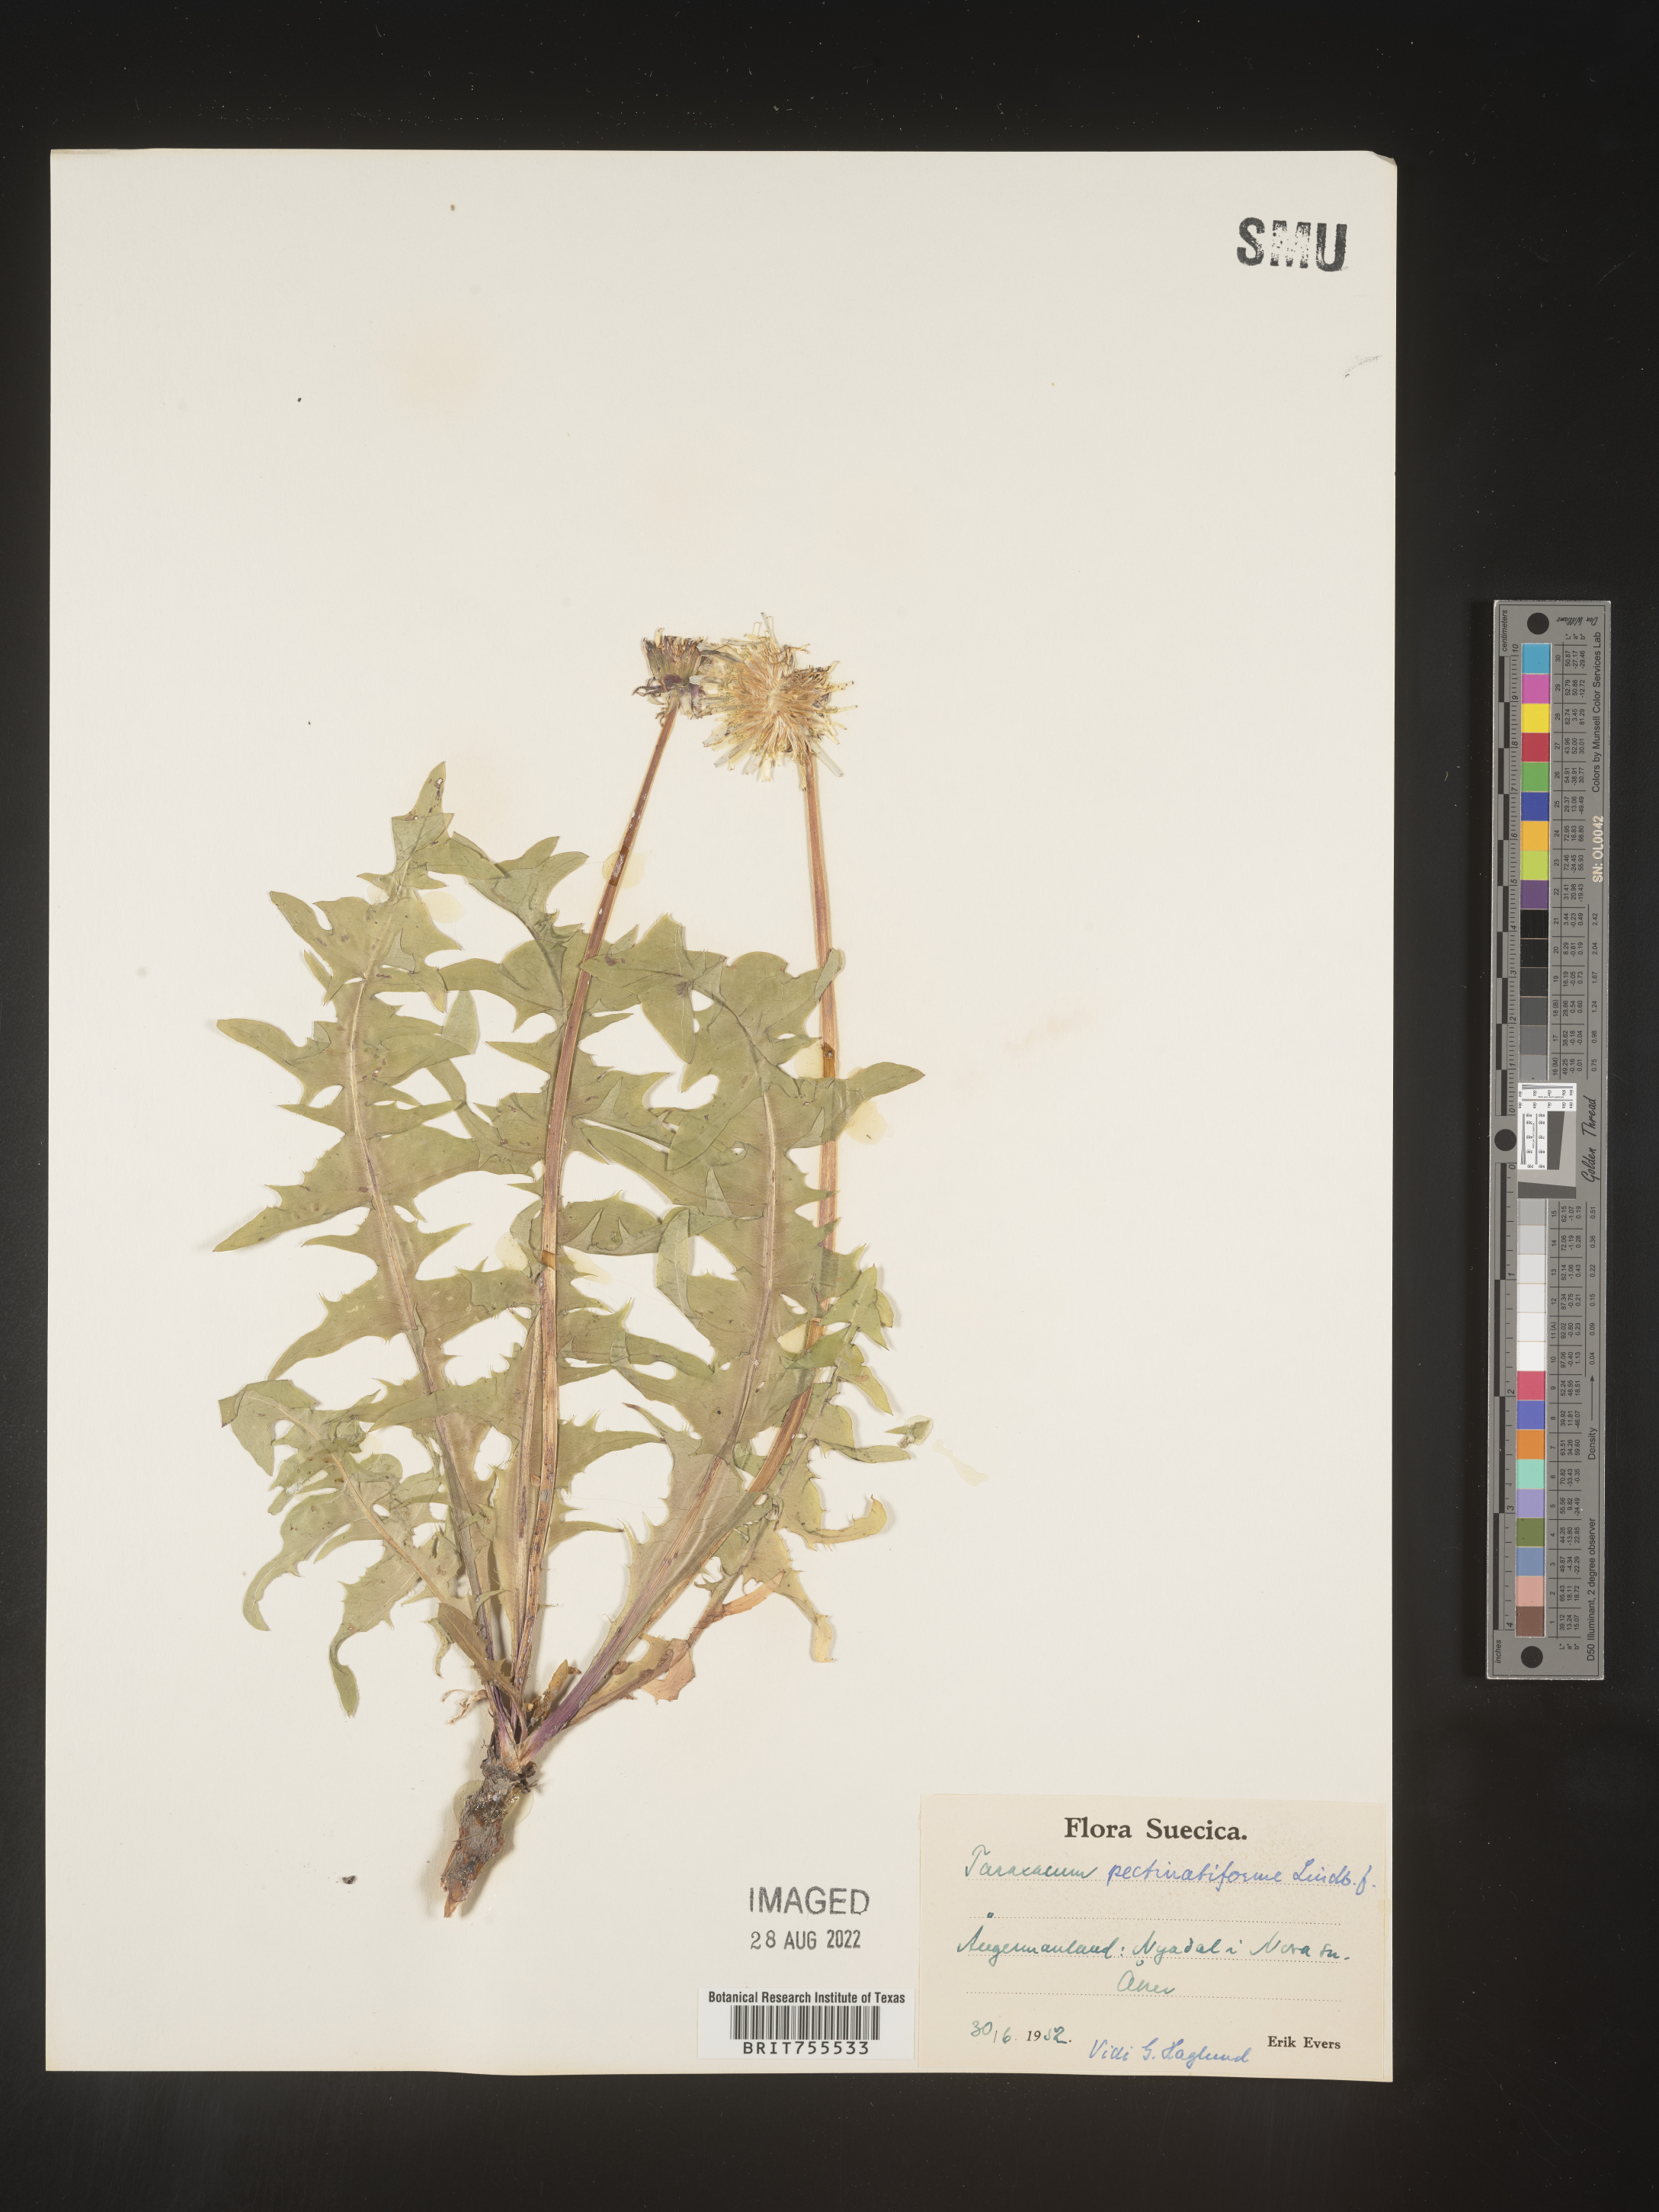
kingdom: Plantae
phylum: Tracheophyta
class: Magnoliopsida
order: Asterales
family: Asteraceae
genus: Taraxacum
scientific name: Taraxacum
